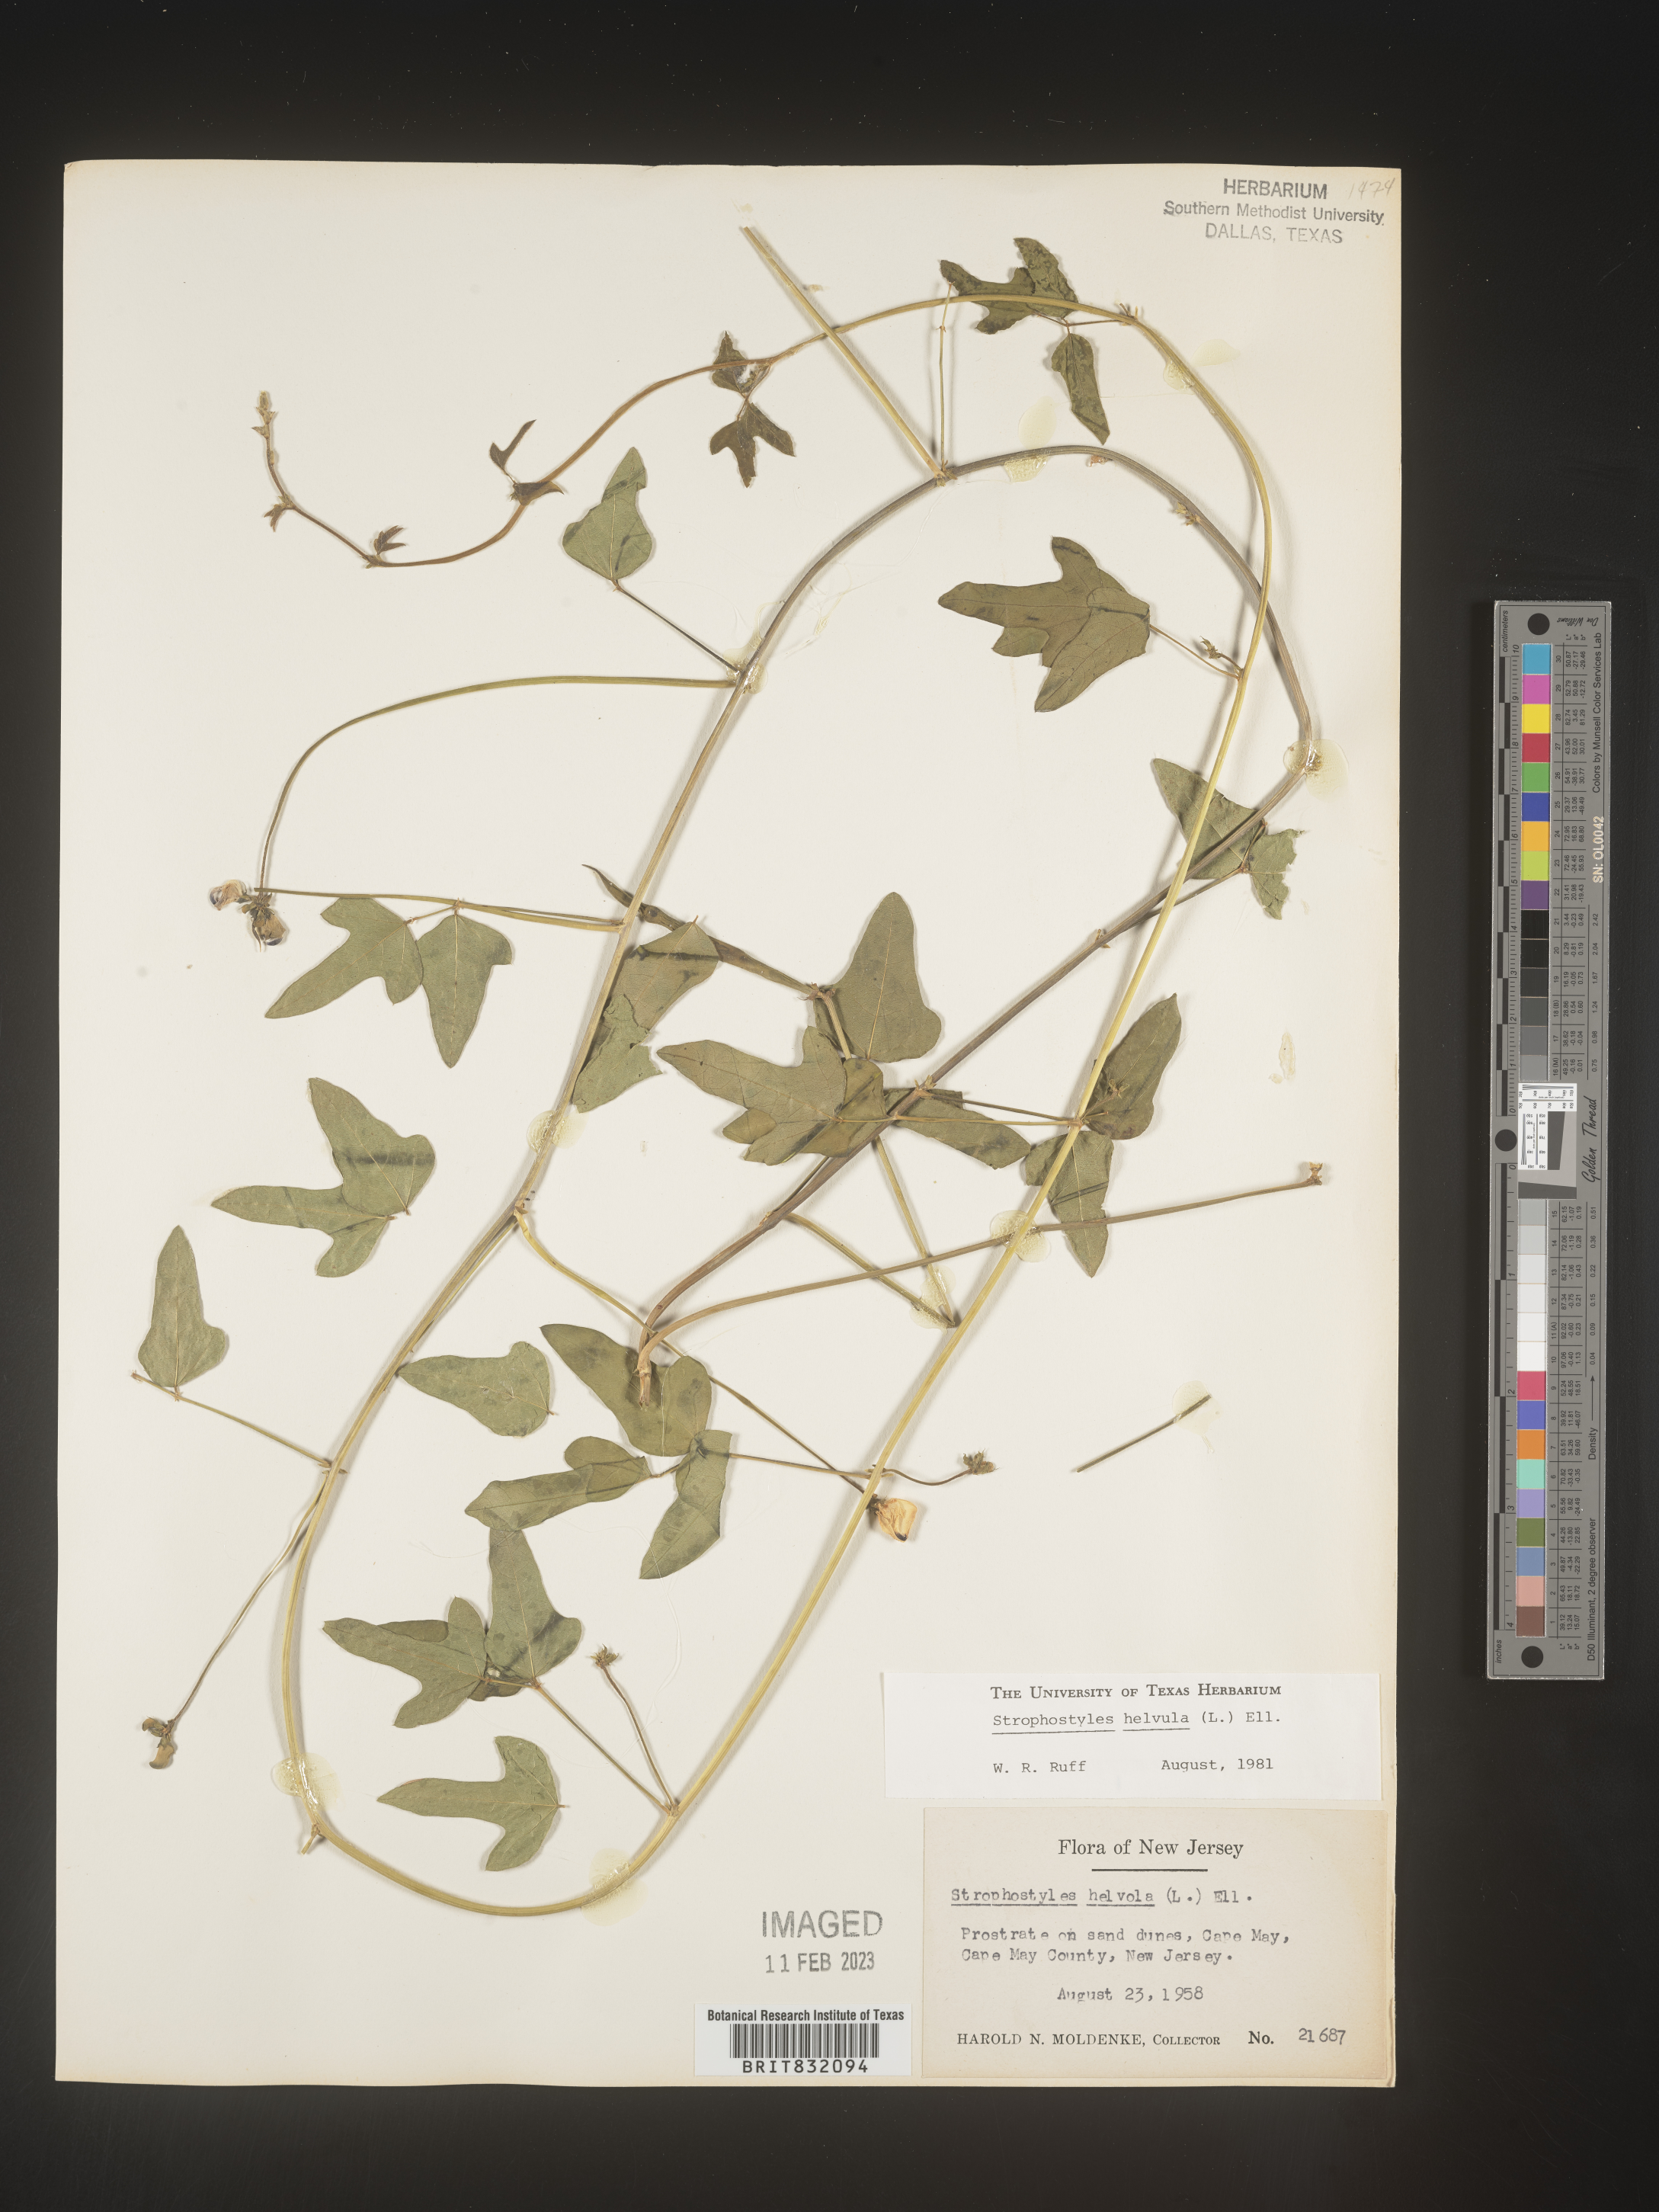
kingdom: Plantae
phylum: Tracheophyta
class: Magnoliopsida
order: Fabales
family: Fabaceae
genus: Strophostyles
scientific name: Strophostyles helvola
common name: Trailing wild bean
